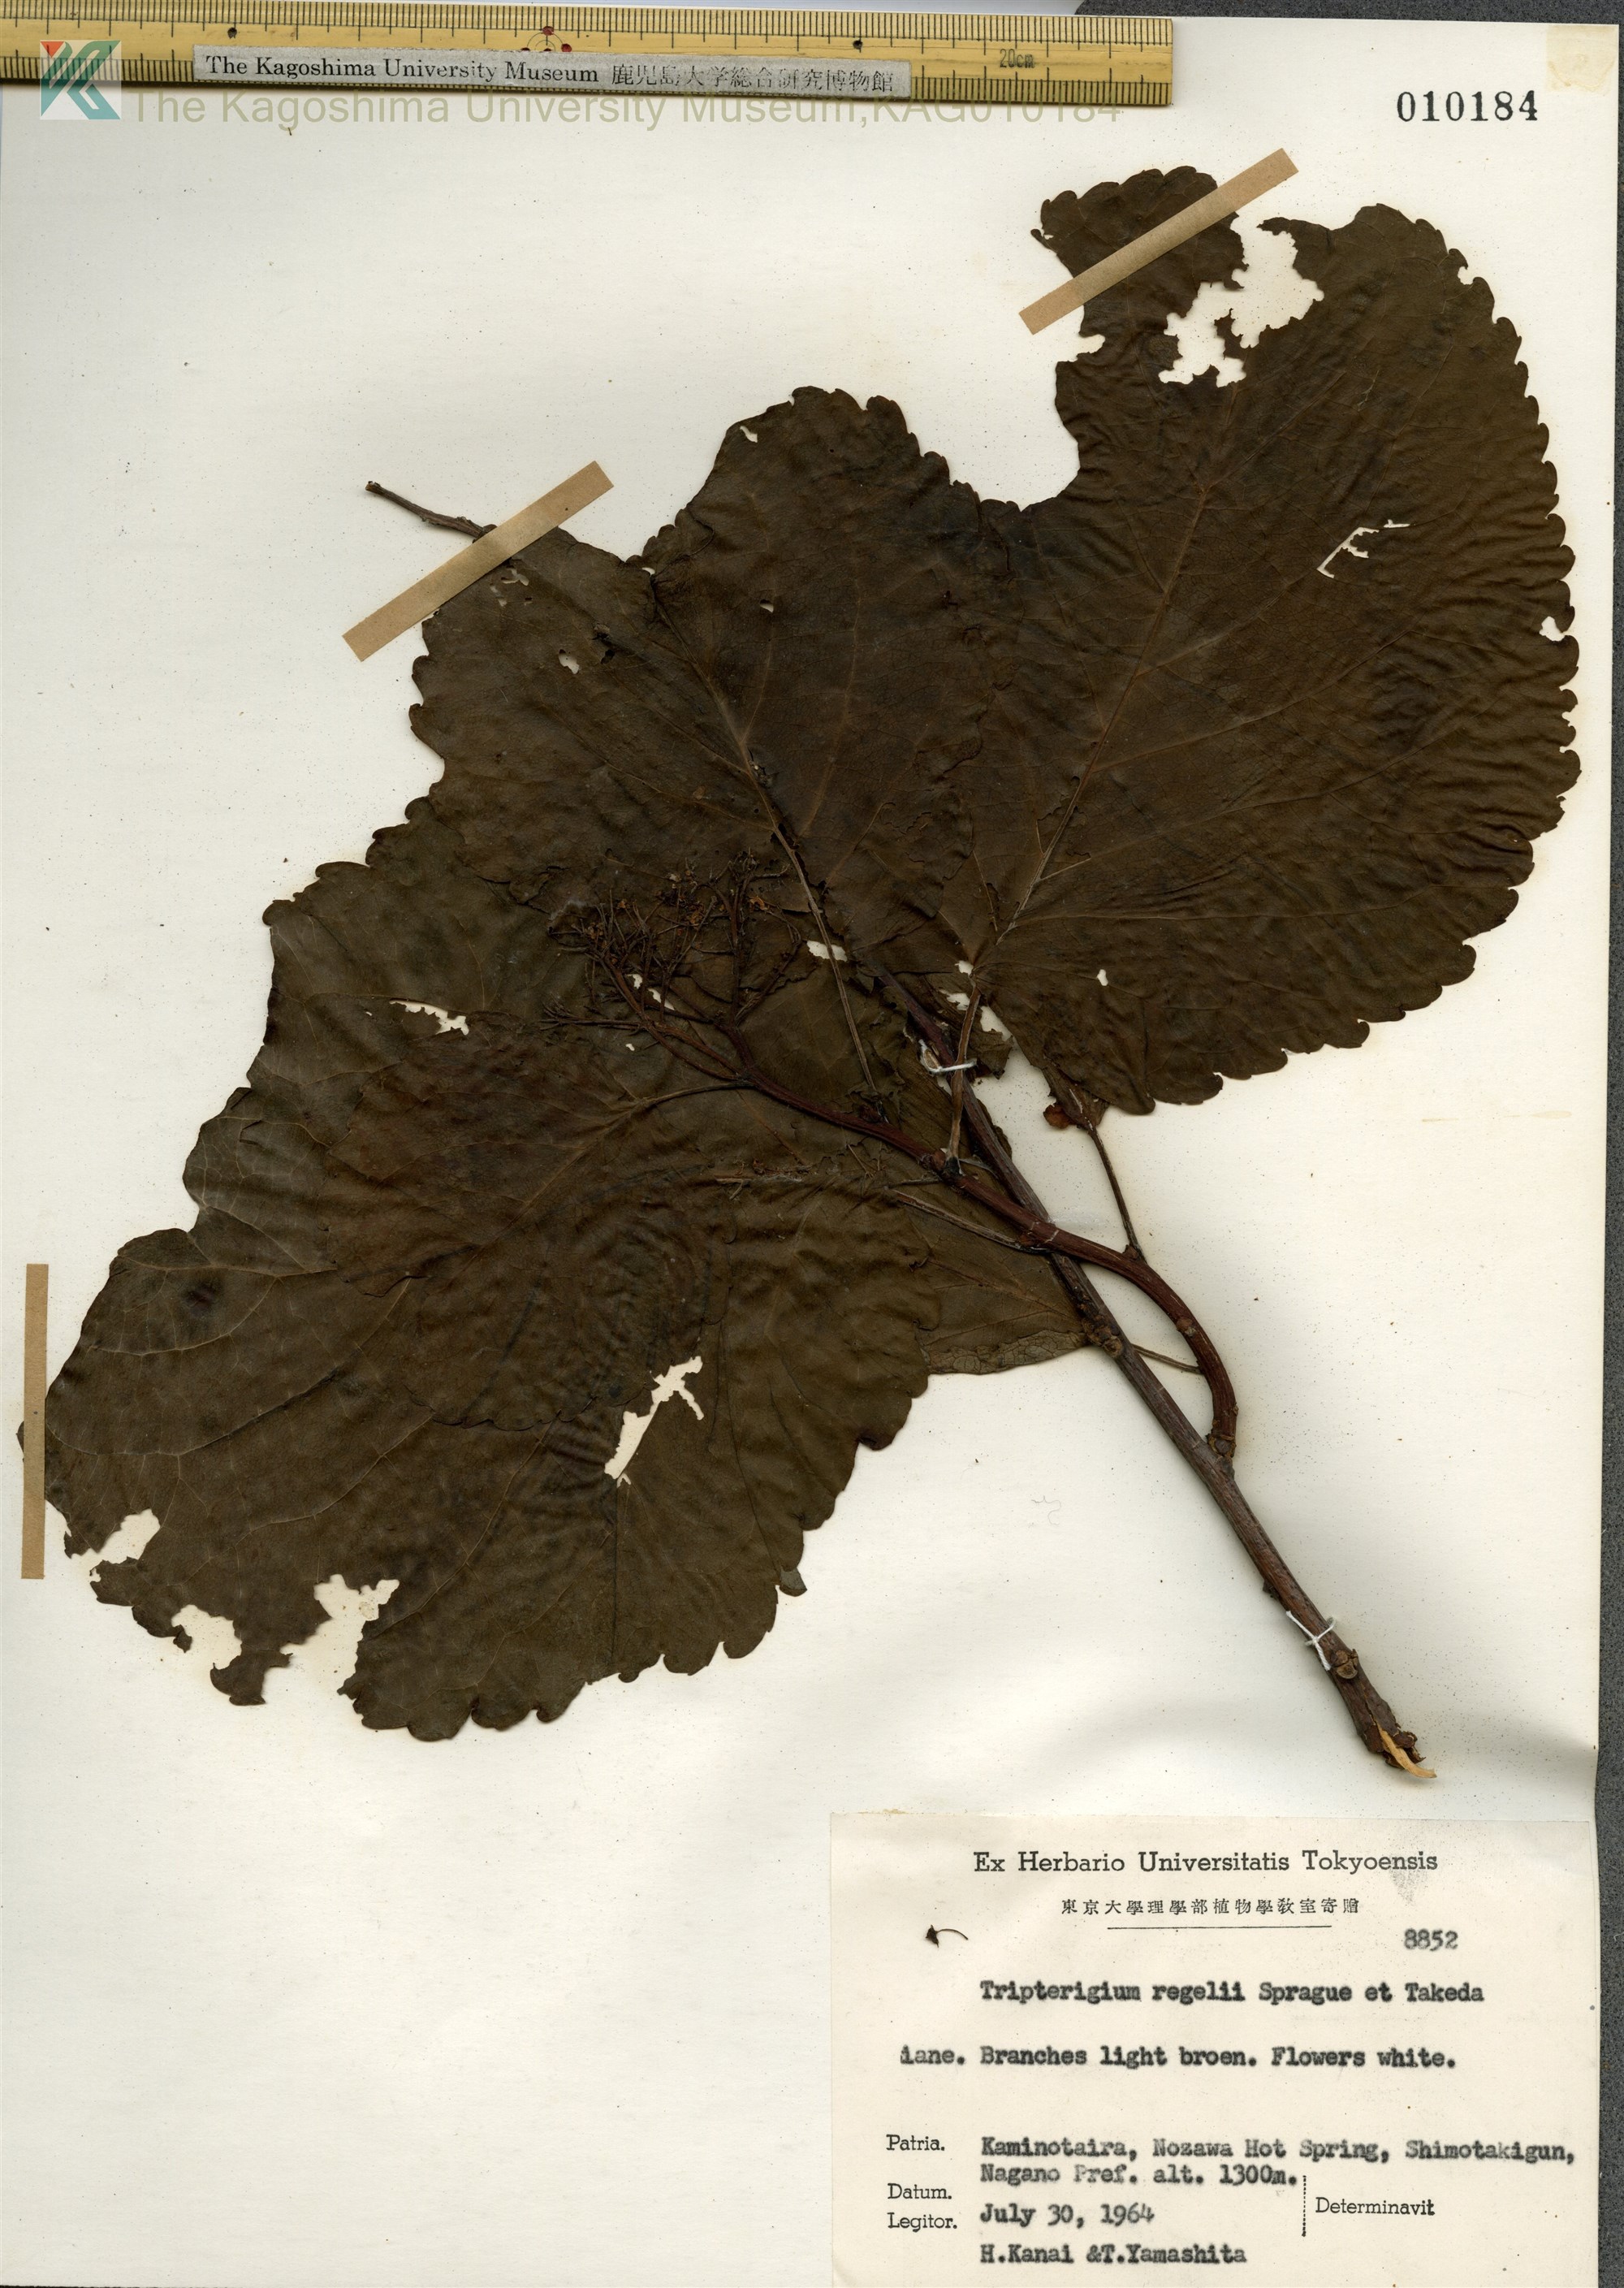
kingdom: Plantae
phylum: Tracheophyta
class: Magnoliopsida
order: Celastrales
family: Celastraceae
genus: Tripterygium
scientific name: Tripterygium wilfordii
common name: クロヅル
